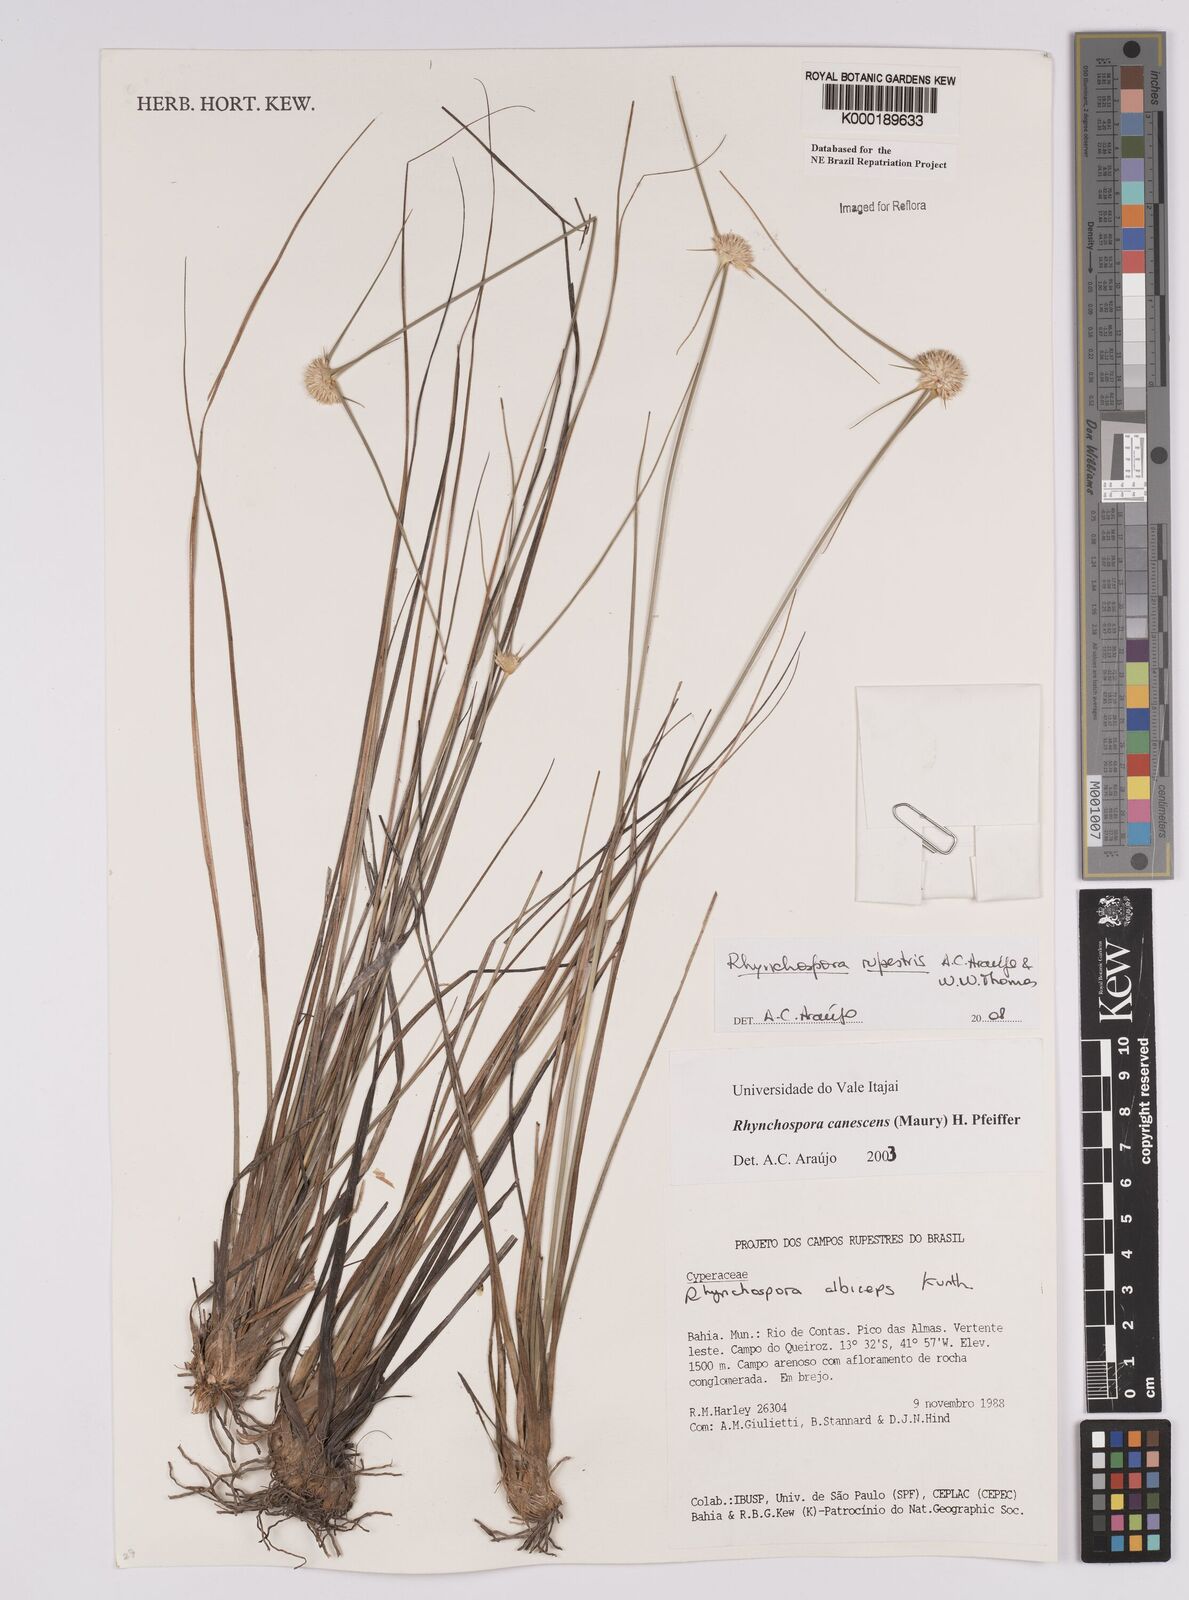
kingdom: Plantae
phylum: Tracheophyta
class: Liliopsida
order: Poales
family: Cyperaceae
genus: Rhynchospora
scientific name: Rhynchospora albiceps
